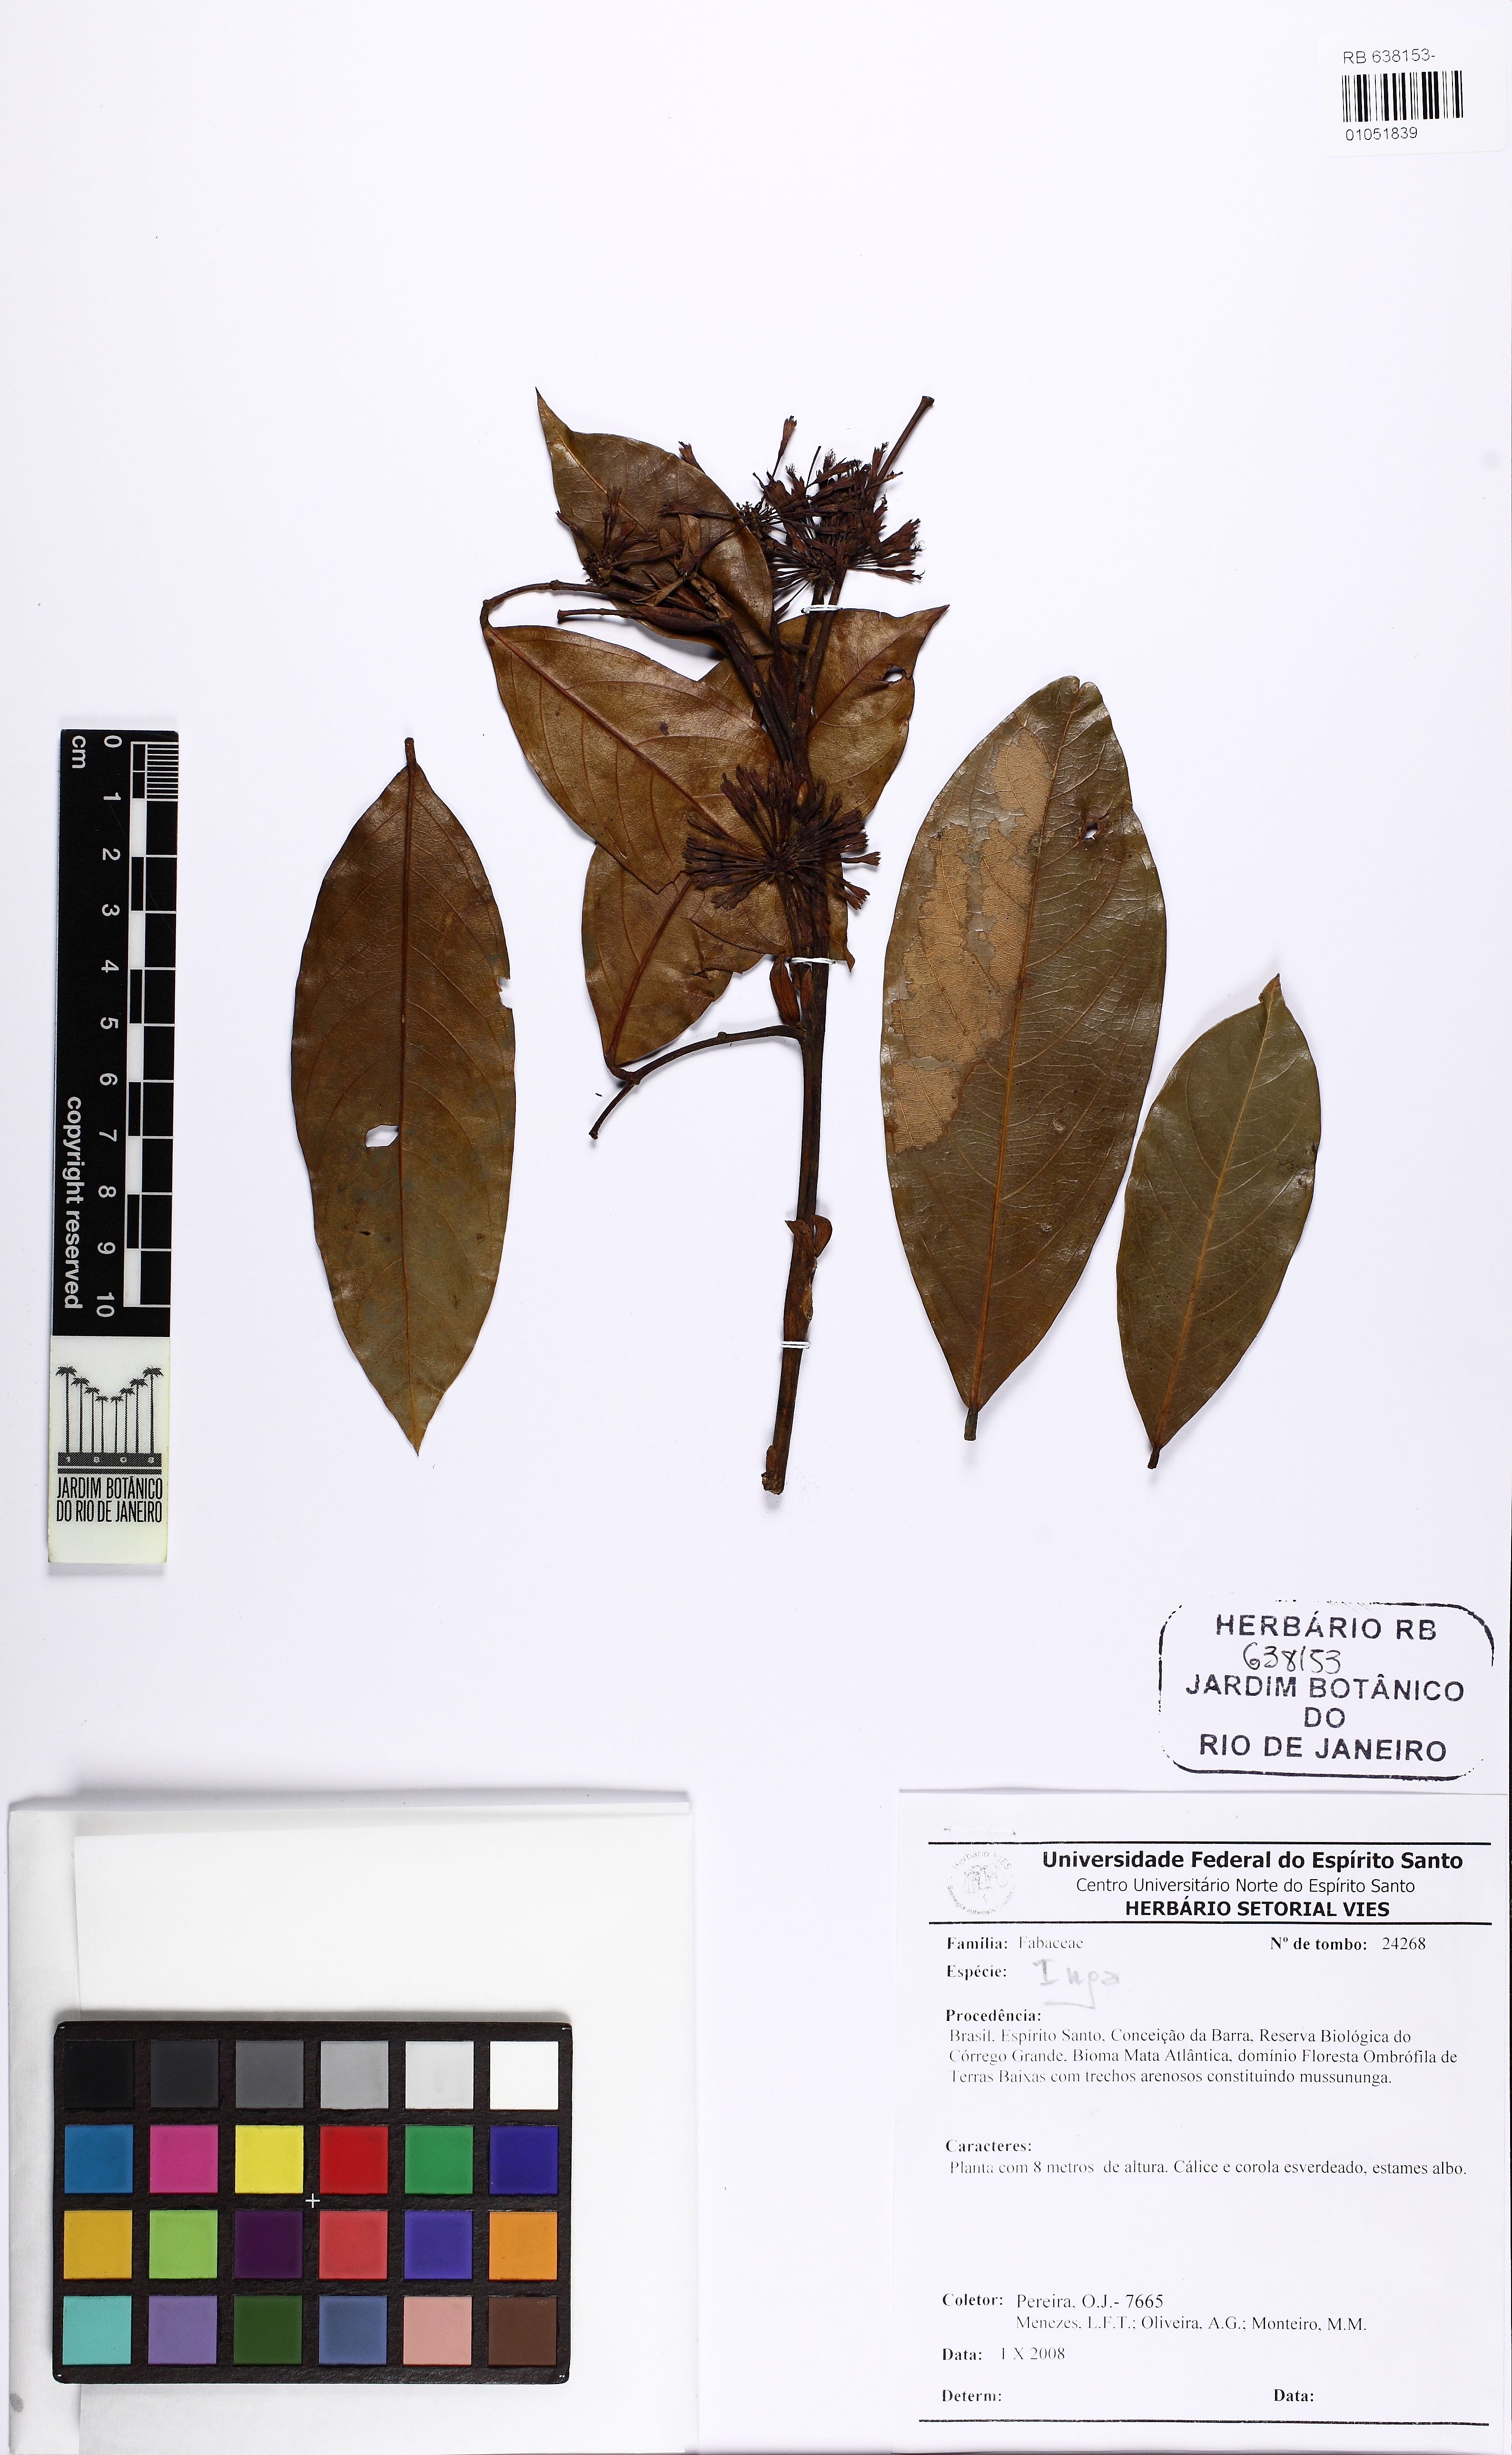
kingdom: Plantae
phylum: Tracheophyta
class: Magnoliopsida
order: Fabales
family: Fabaceae
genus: Inga
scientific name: Inga
